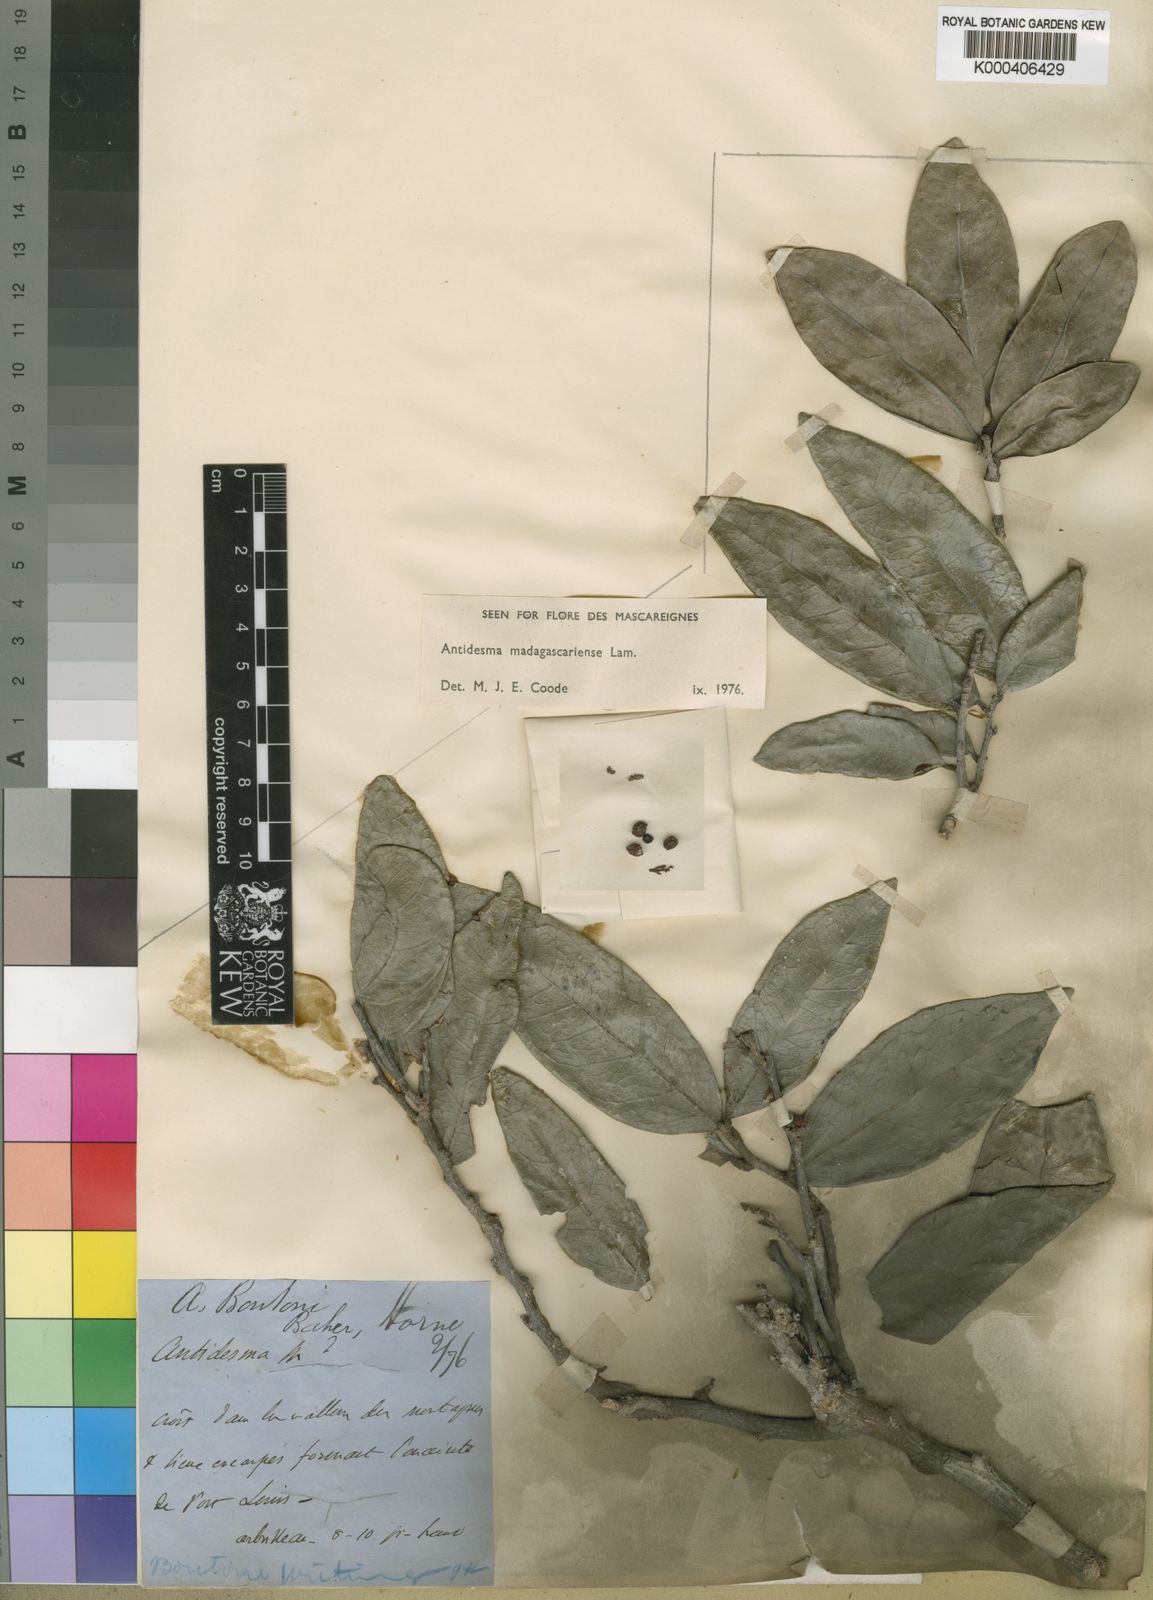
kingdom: Plantae
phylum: Tracheophyta
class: Magnoliopsida
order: Malpighiales
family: Phyllanthaceae
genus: Antidesma
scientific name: Antidesma madagascariense
